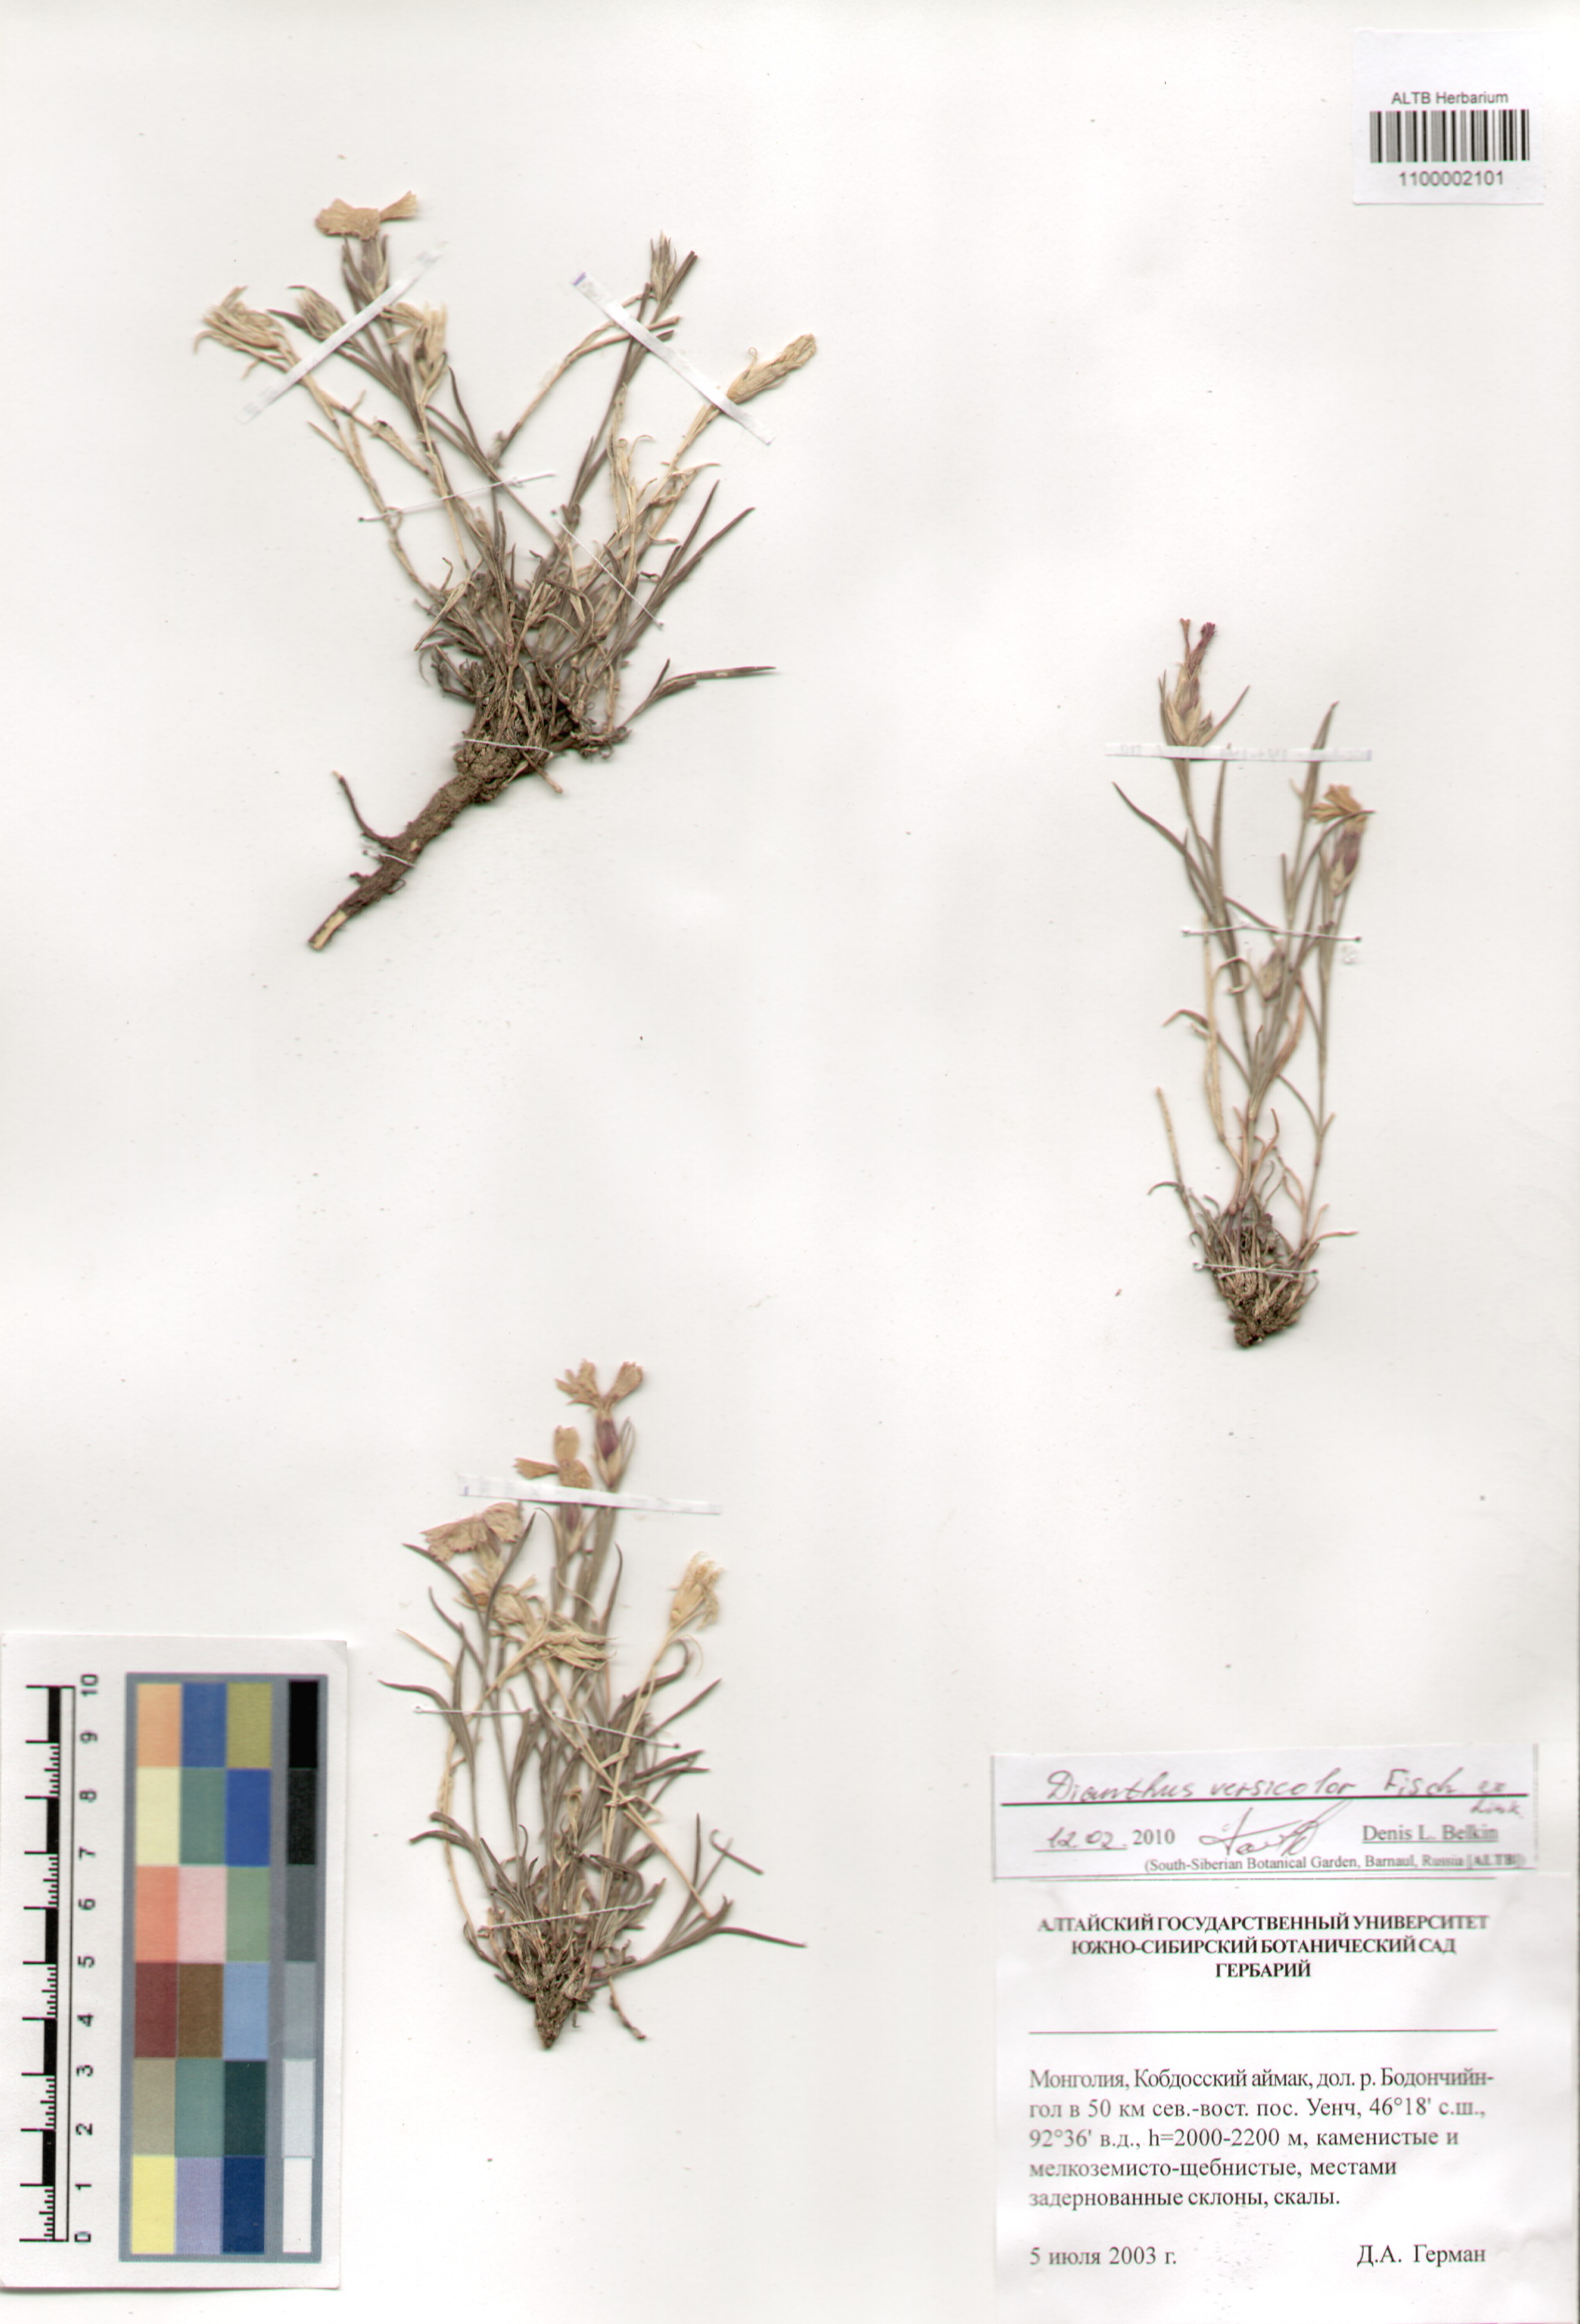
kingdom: Plantae
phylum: Tracheophyta
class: Magnoliopsida
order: Caryophyllales
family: Caryophyllaceae
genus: Dianthus
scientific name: Dianthus chinensis
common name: Rainbow pink
